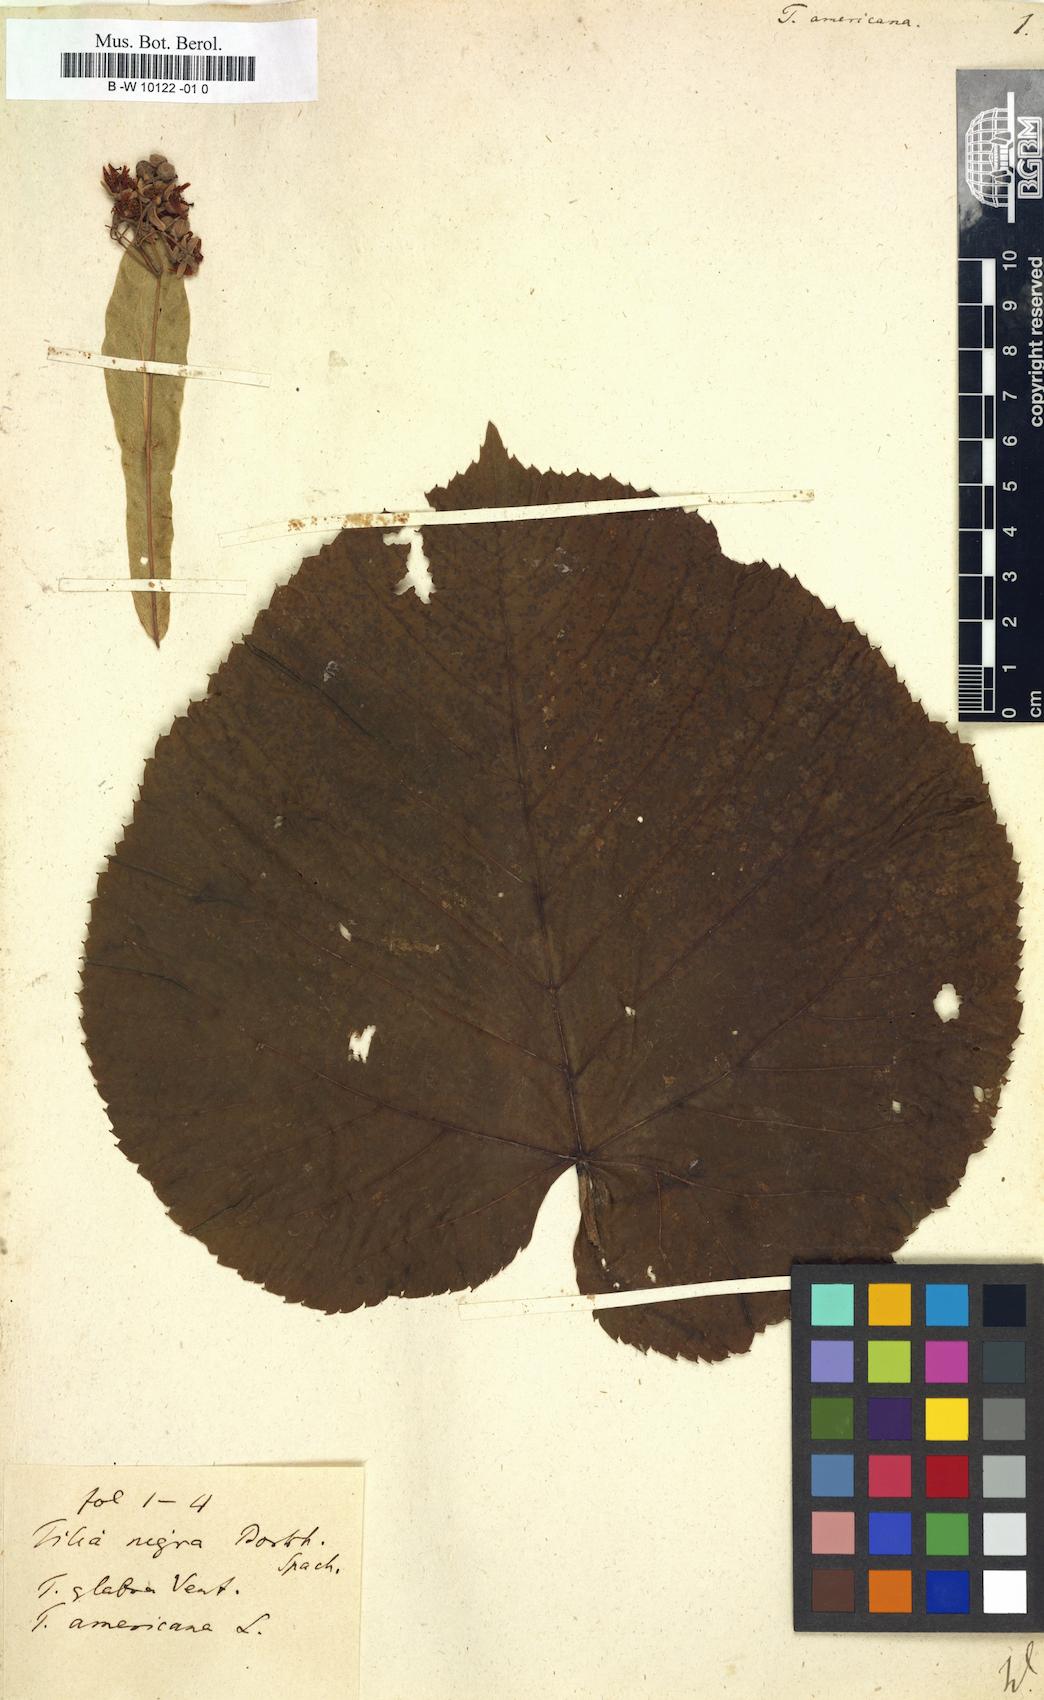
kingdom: Plantae
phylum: Tracheophyta
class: Magnoliopsida
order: Malvales
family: Malvaceae
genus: Tilia
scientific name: Tilia americana
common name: Basswood
